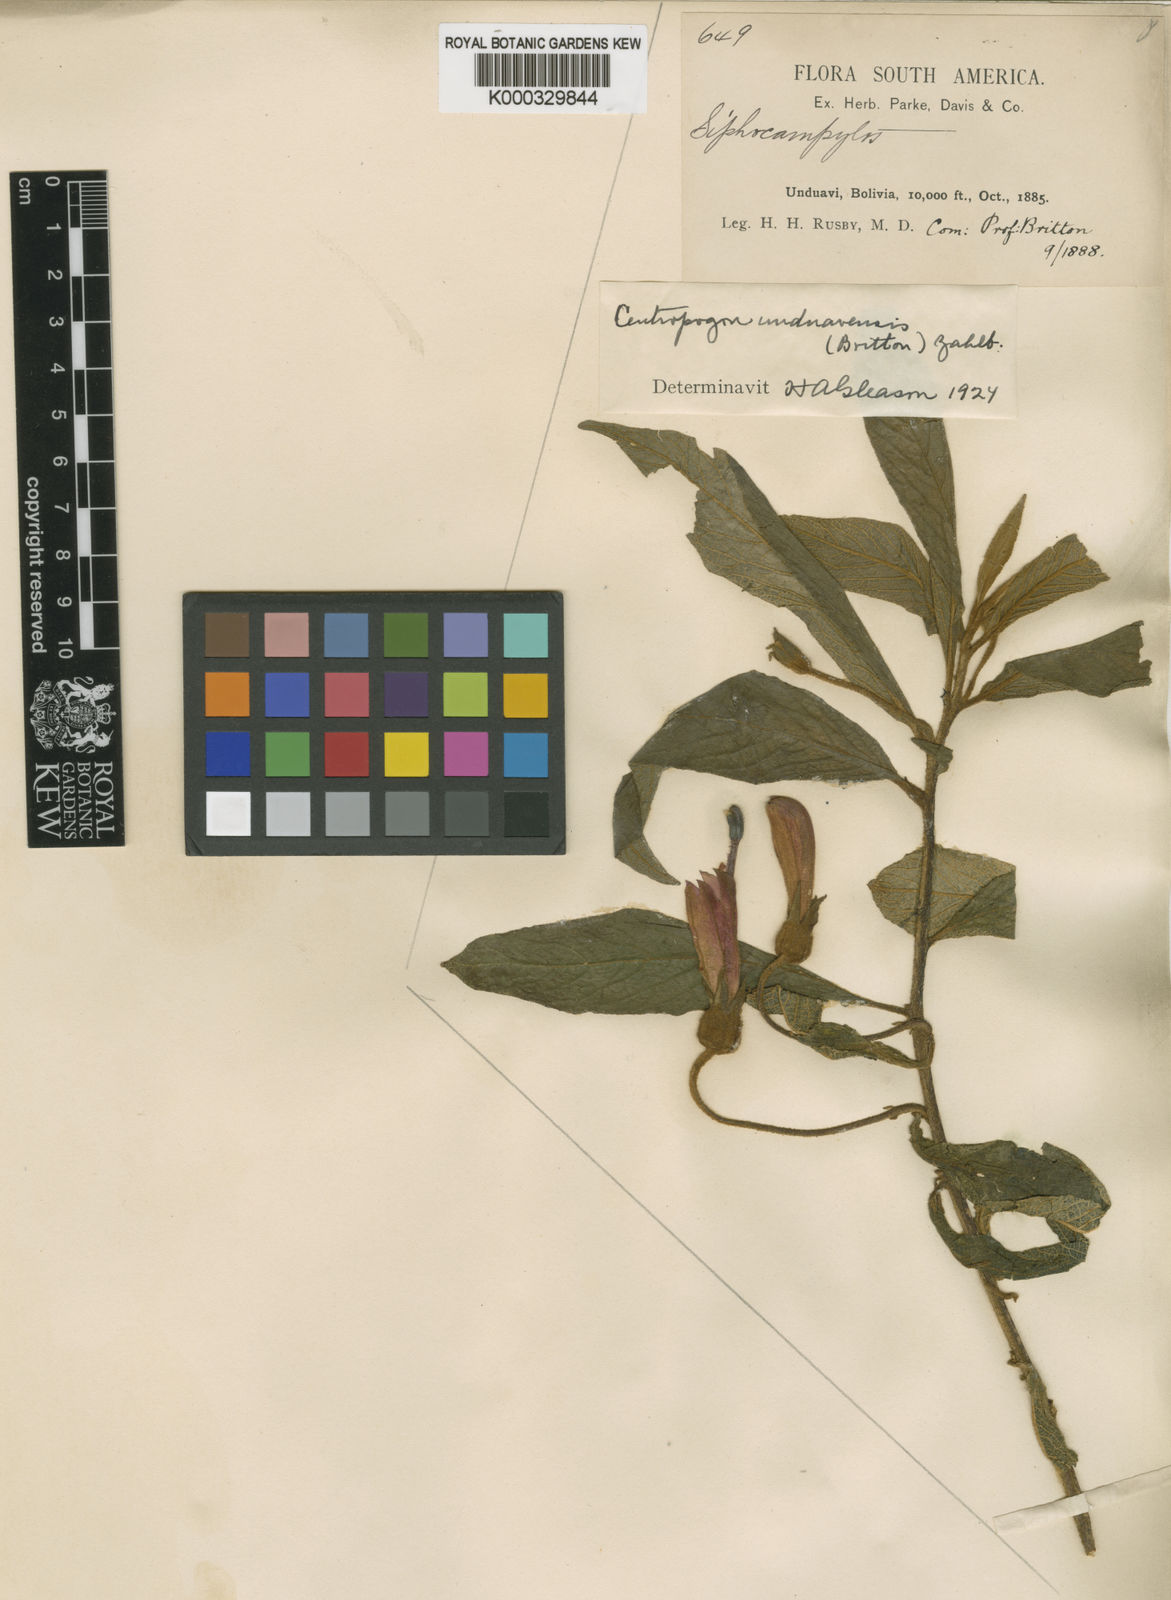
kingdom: Plantae
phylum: Tracheophyta
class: Magnoliopsida
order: Asterales
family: Campanulaceae
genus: Centropogon
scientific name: Centropogon unduavensis
